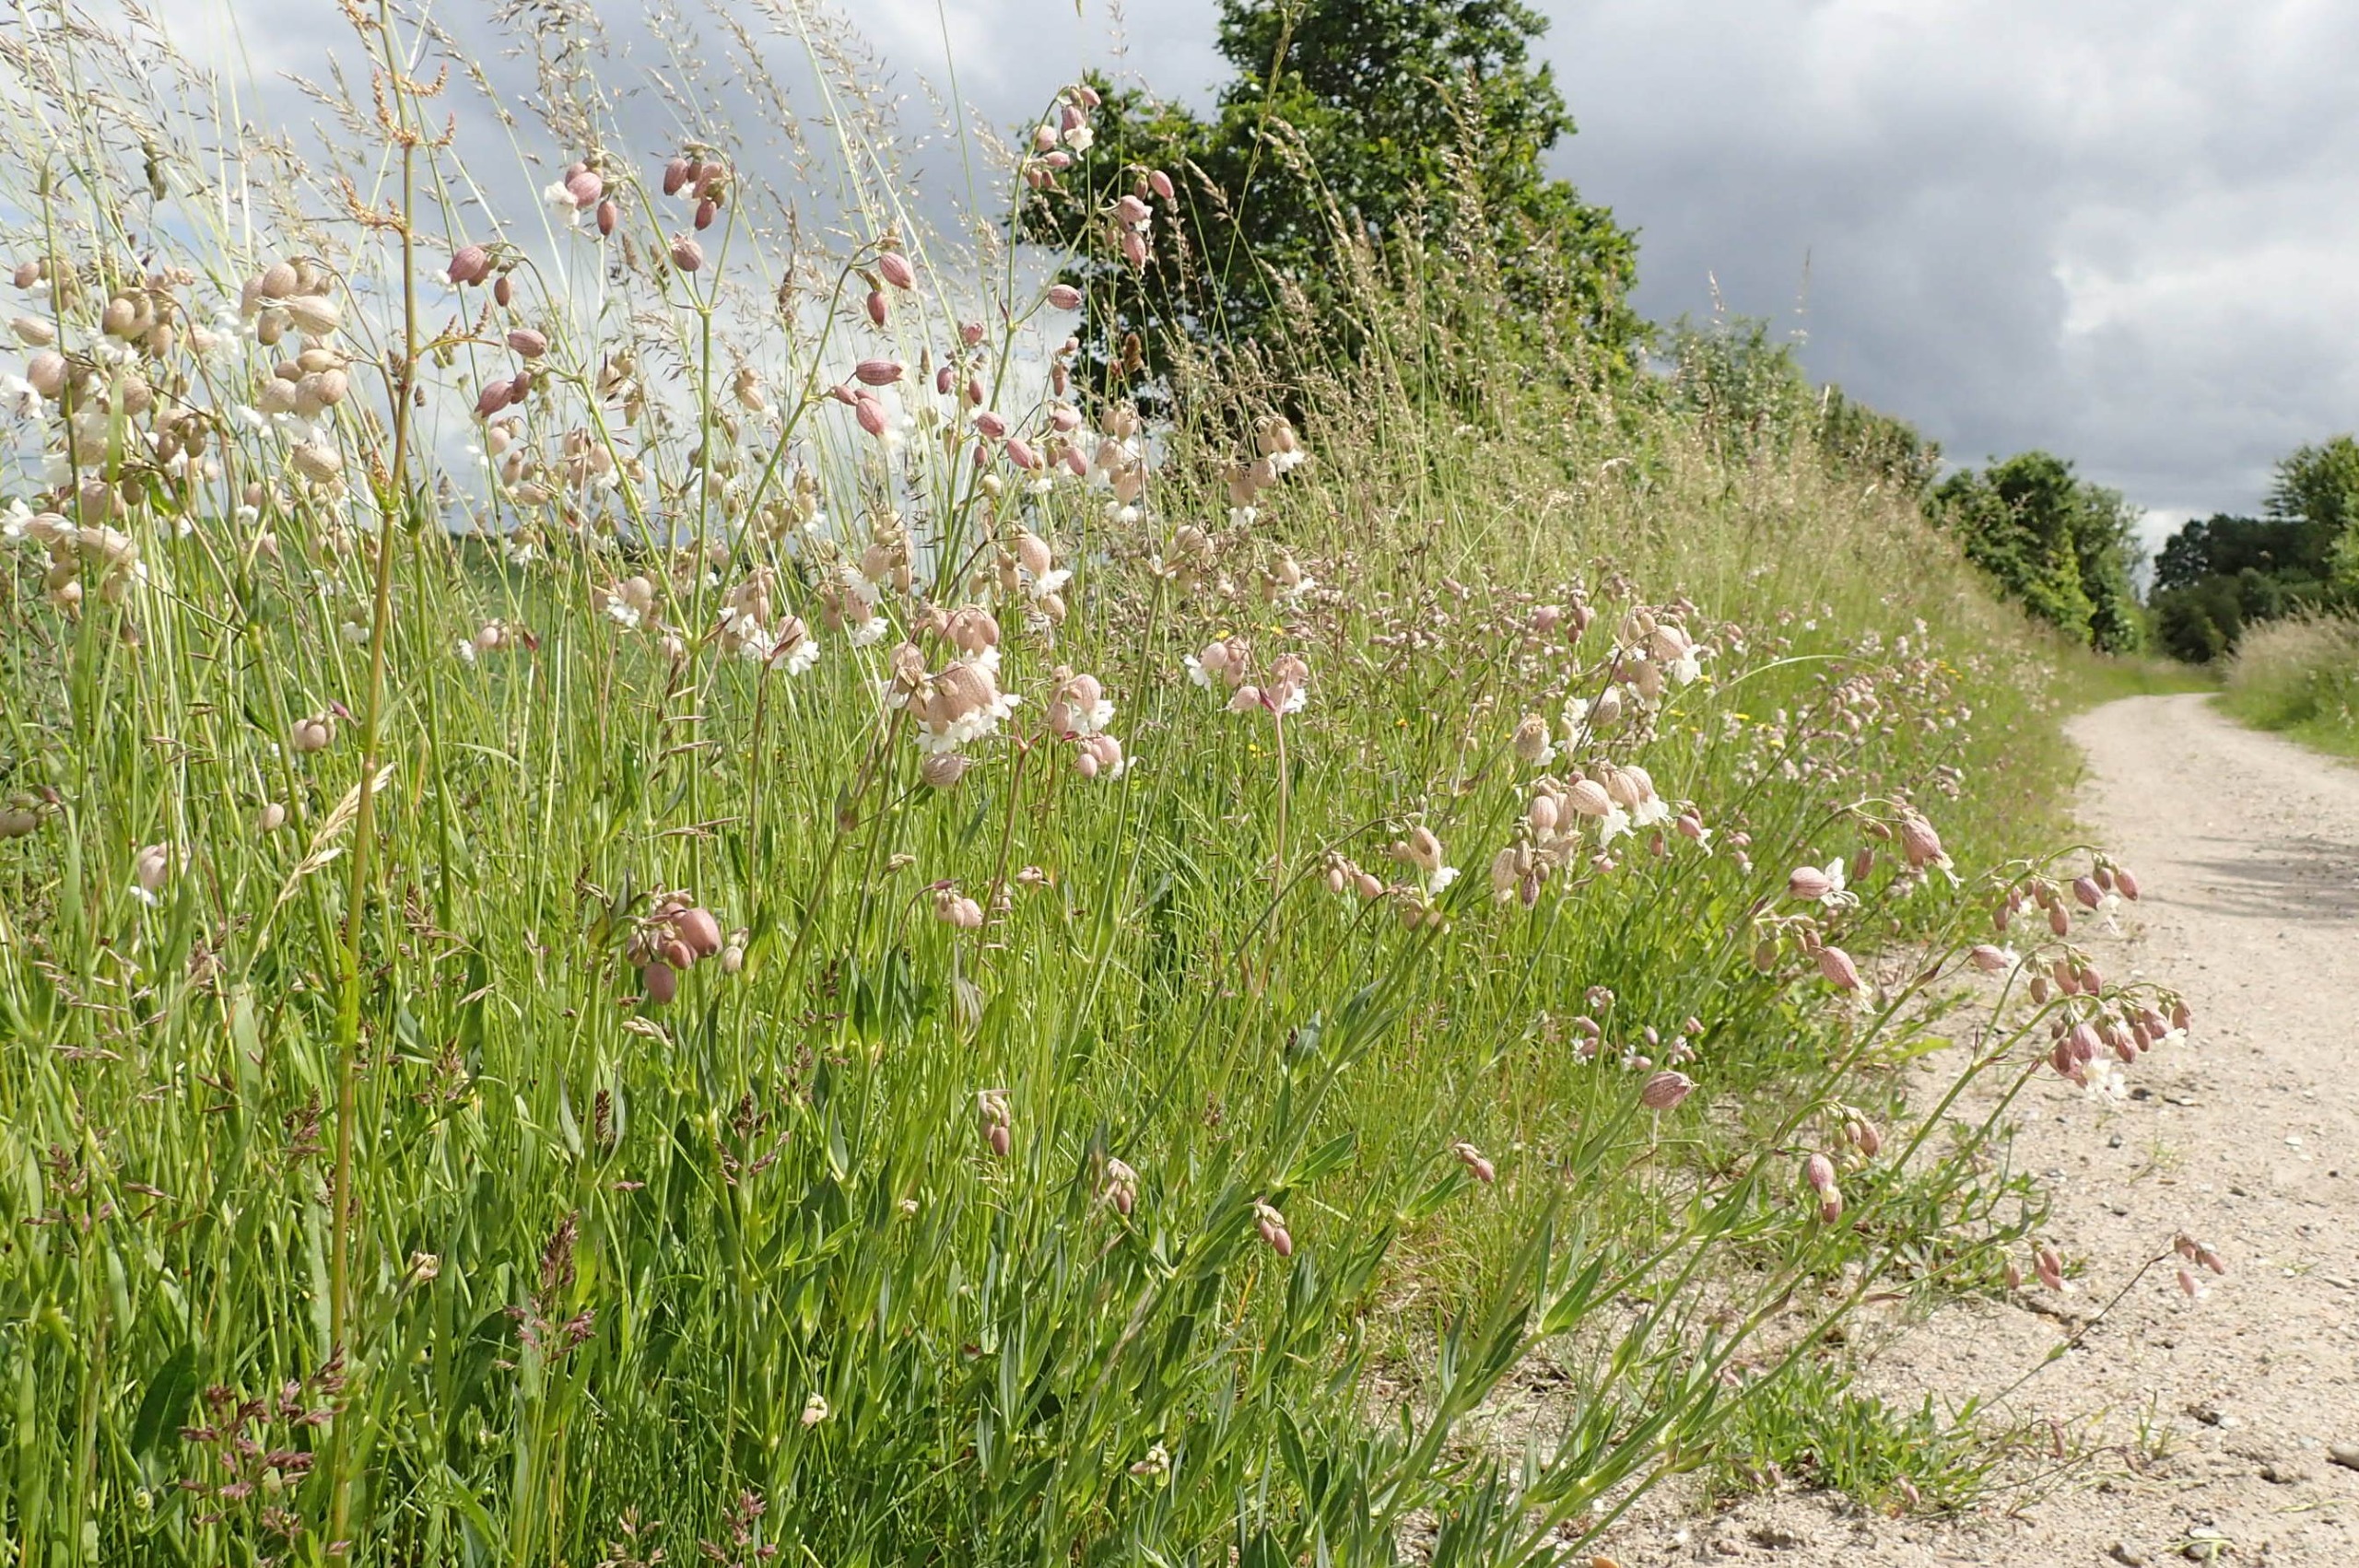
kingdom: Plantae
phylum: Tracheophyta
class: Magnoliopsida
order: Caryophyllales
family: Caryophyllaceae
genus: Silene
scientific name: Silene vulgaris
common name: Blæresmælde
